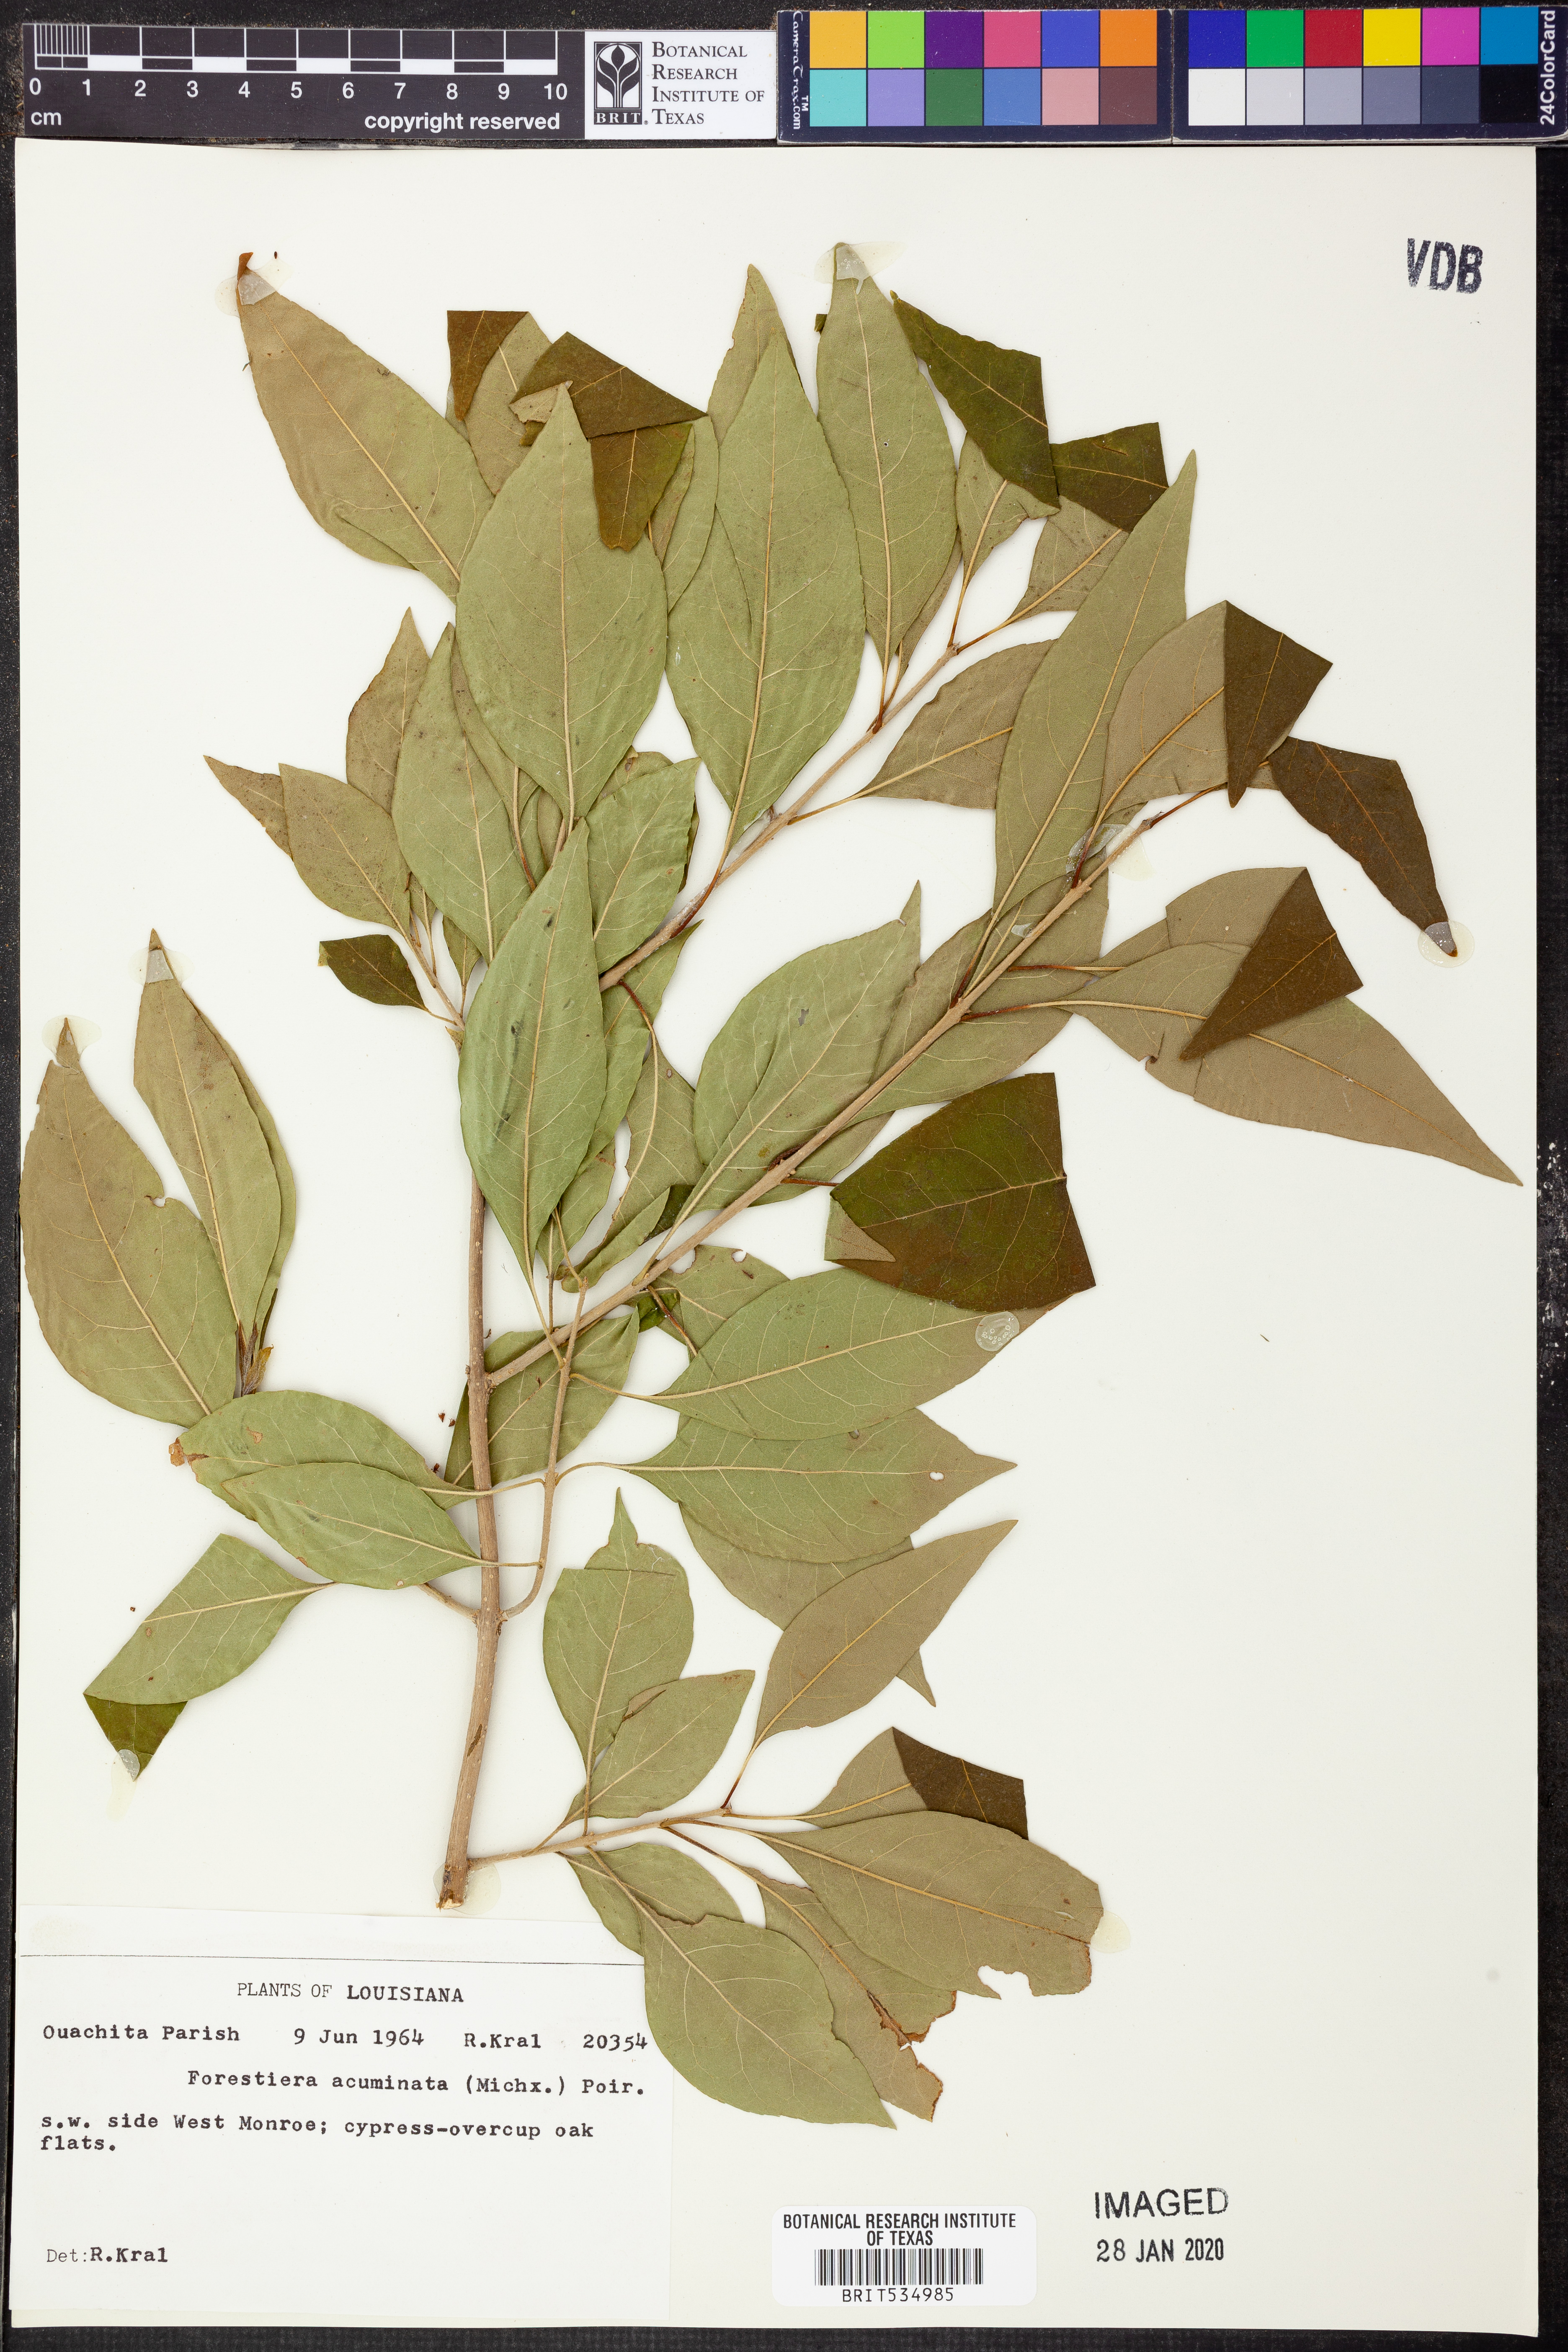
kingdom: Plantae
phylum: Tracheophyta
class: Magnoliopsida
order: Lamiales
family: Oleaceae
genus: Forestiera
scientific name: Forestiera acuminata
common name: Swamp-privet
